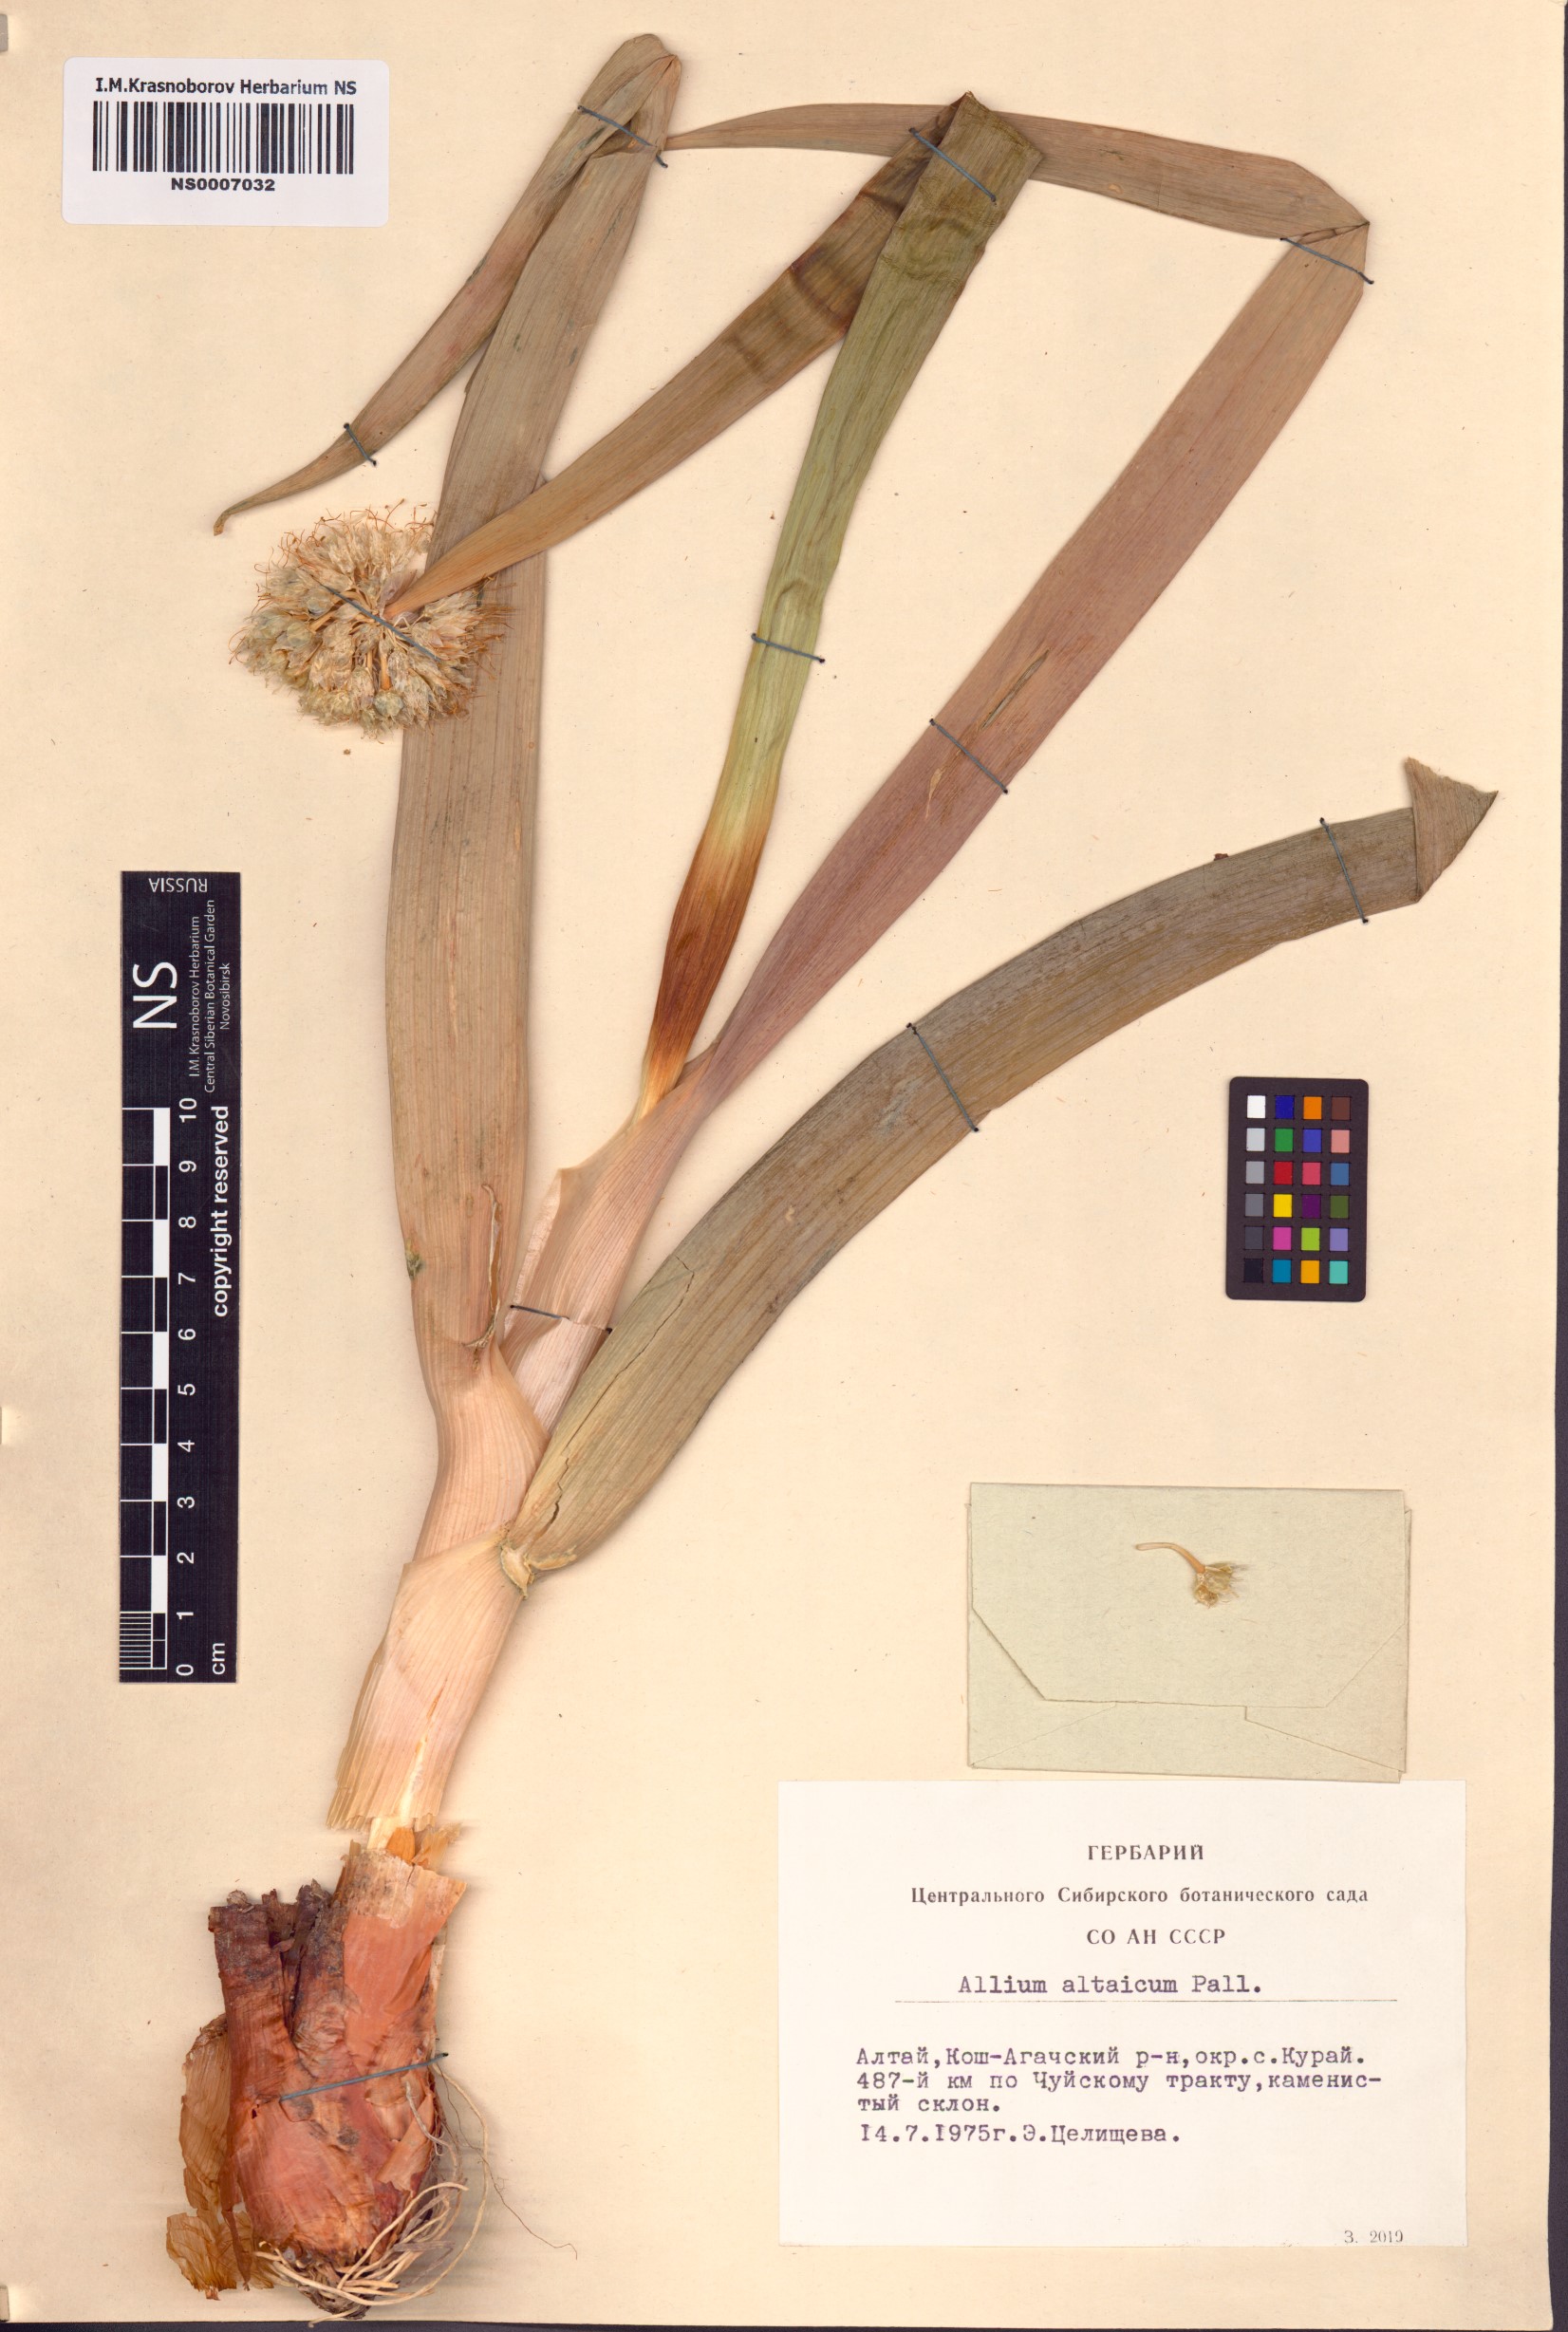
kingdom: Plantae
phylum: Tracheophyta
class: Liliopsida
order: Asparagales
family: Amaryllidaceae
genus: Allium
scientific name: Allium altaicum
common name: Altai onion
